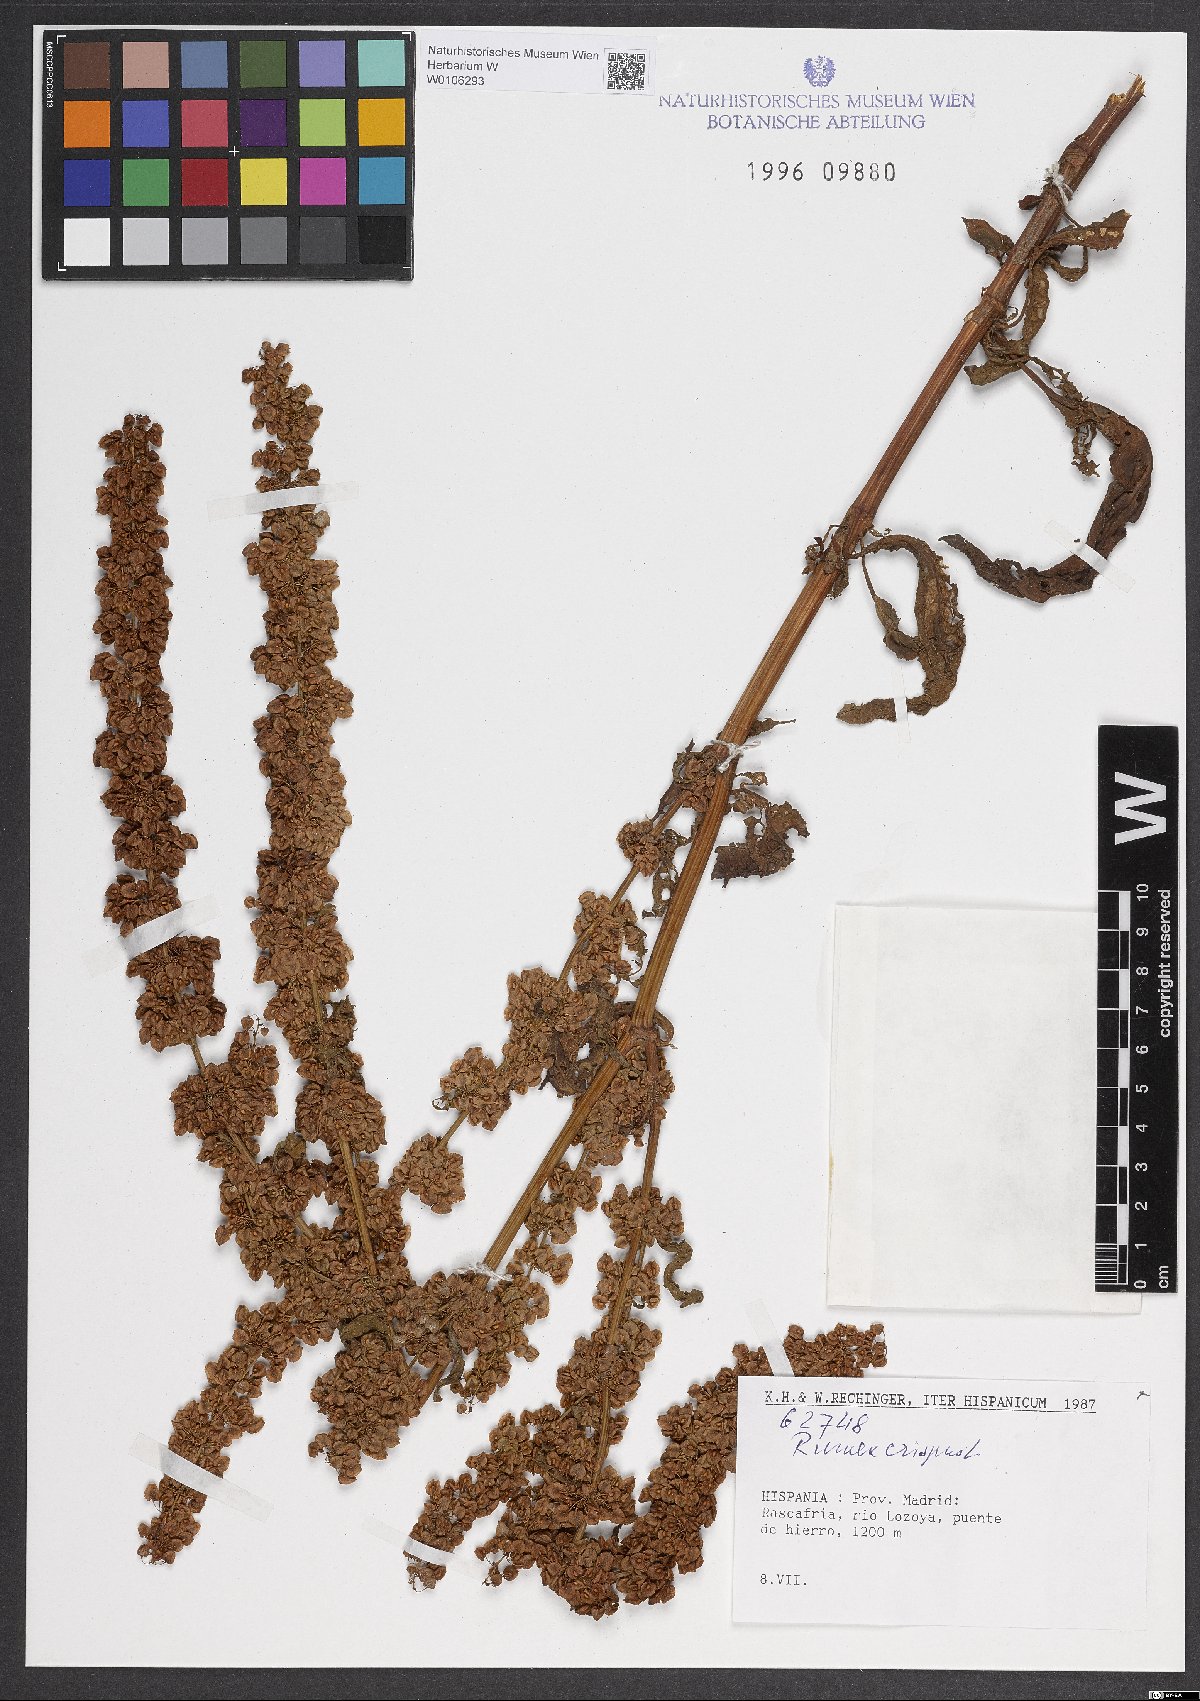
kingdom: Plantae
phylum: Tracheophyta
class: Magnoliopsida
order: Caryophyllales
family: Polygonaceae
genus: Rumex
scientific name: Rumex crispus
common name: Curled dock
